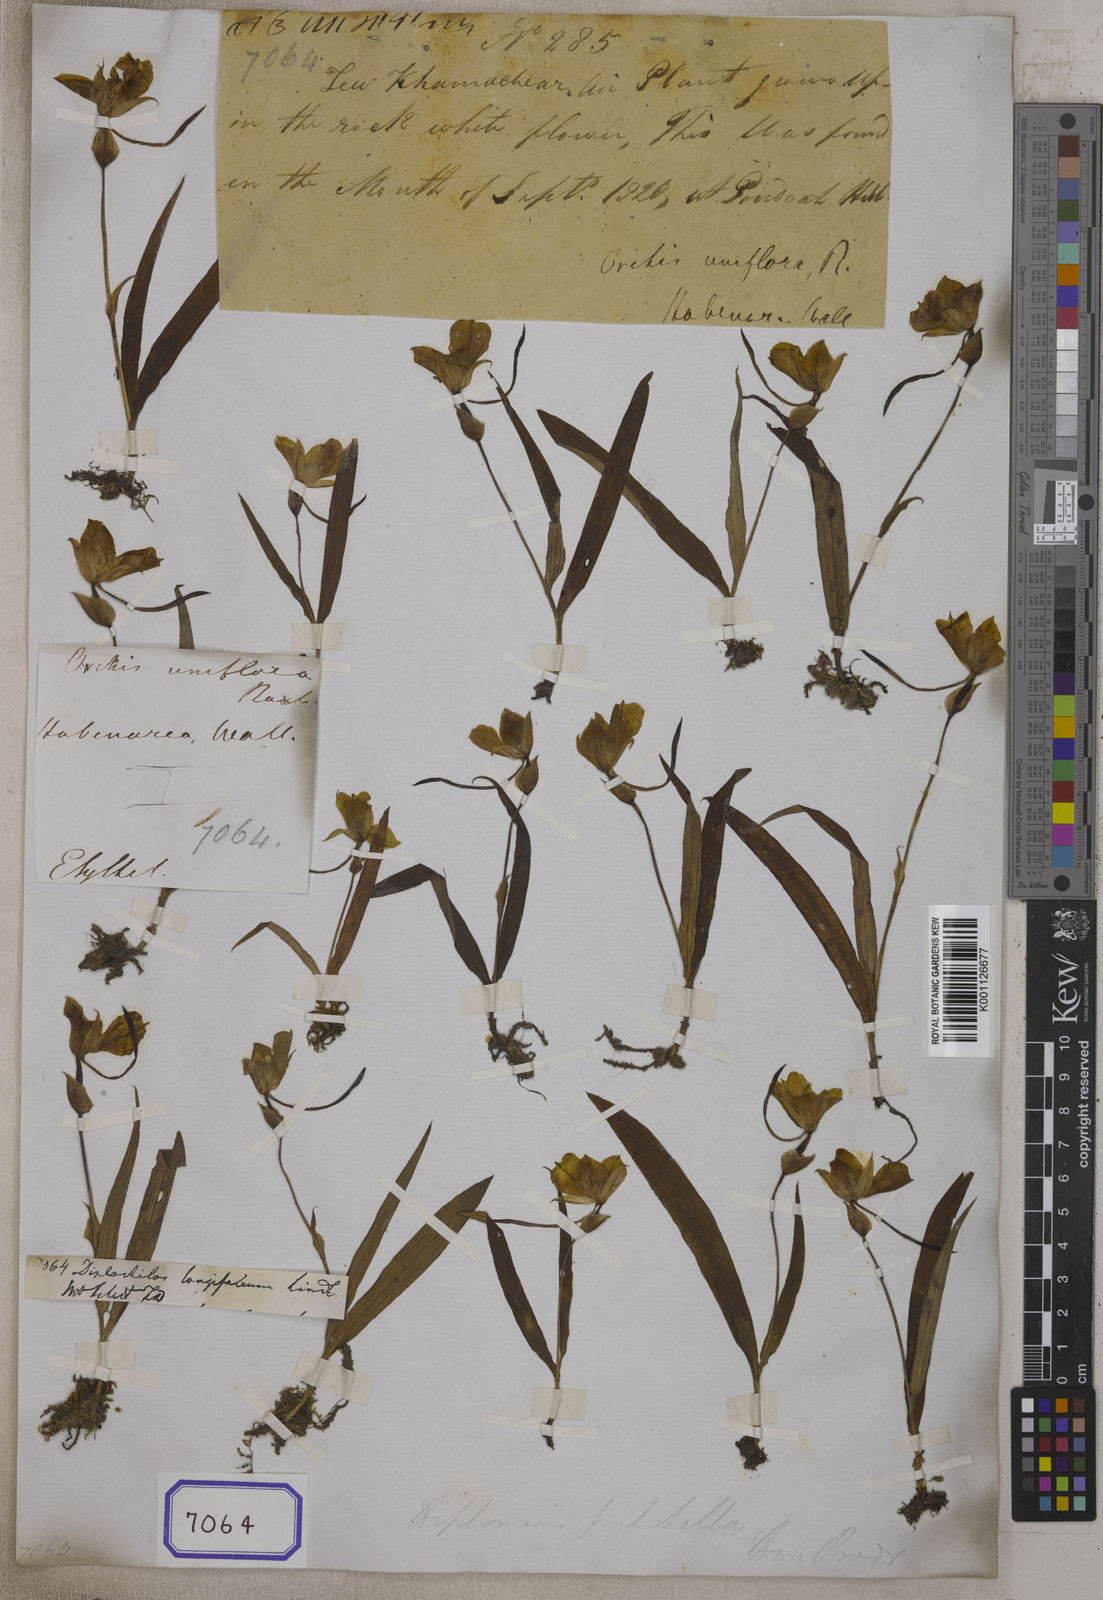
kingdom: Plantae
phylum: Tracheophyta
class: Liliopsida
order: Asparagales
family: Orchidaceae
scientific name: Orchidaceae
